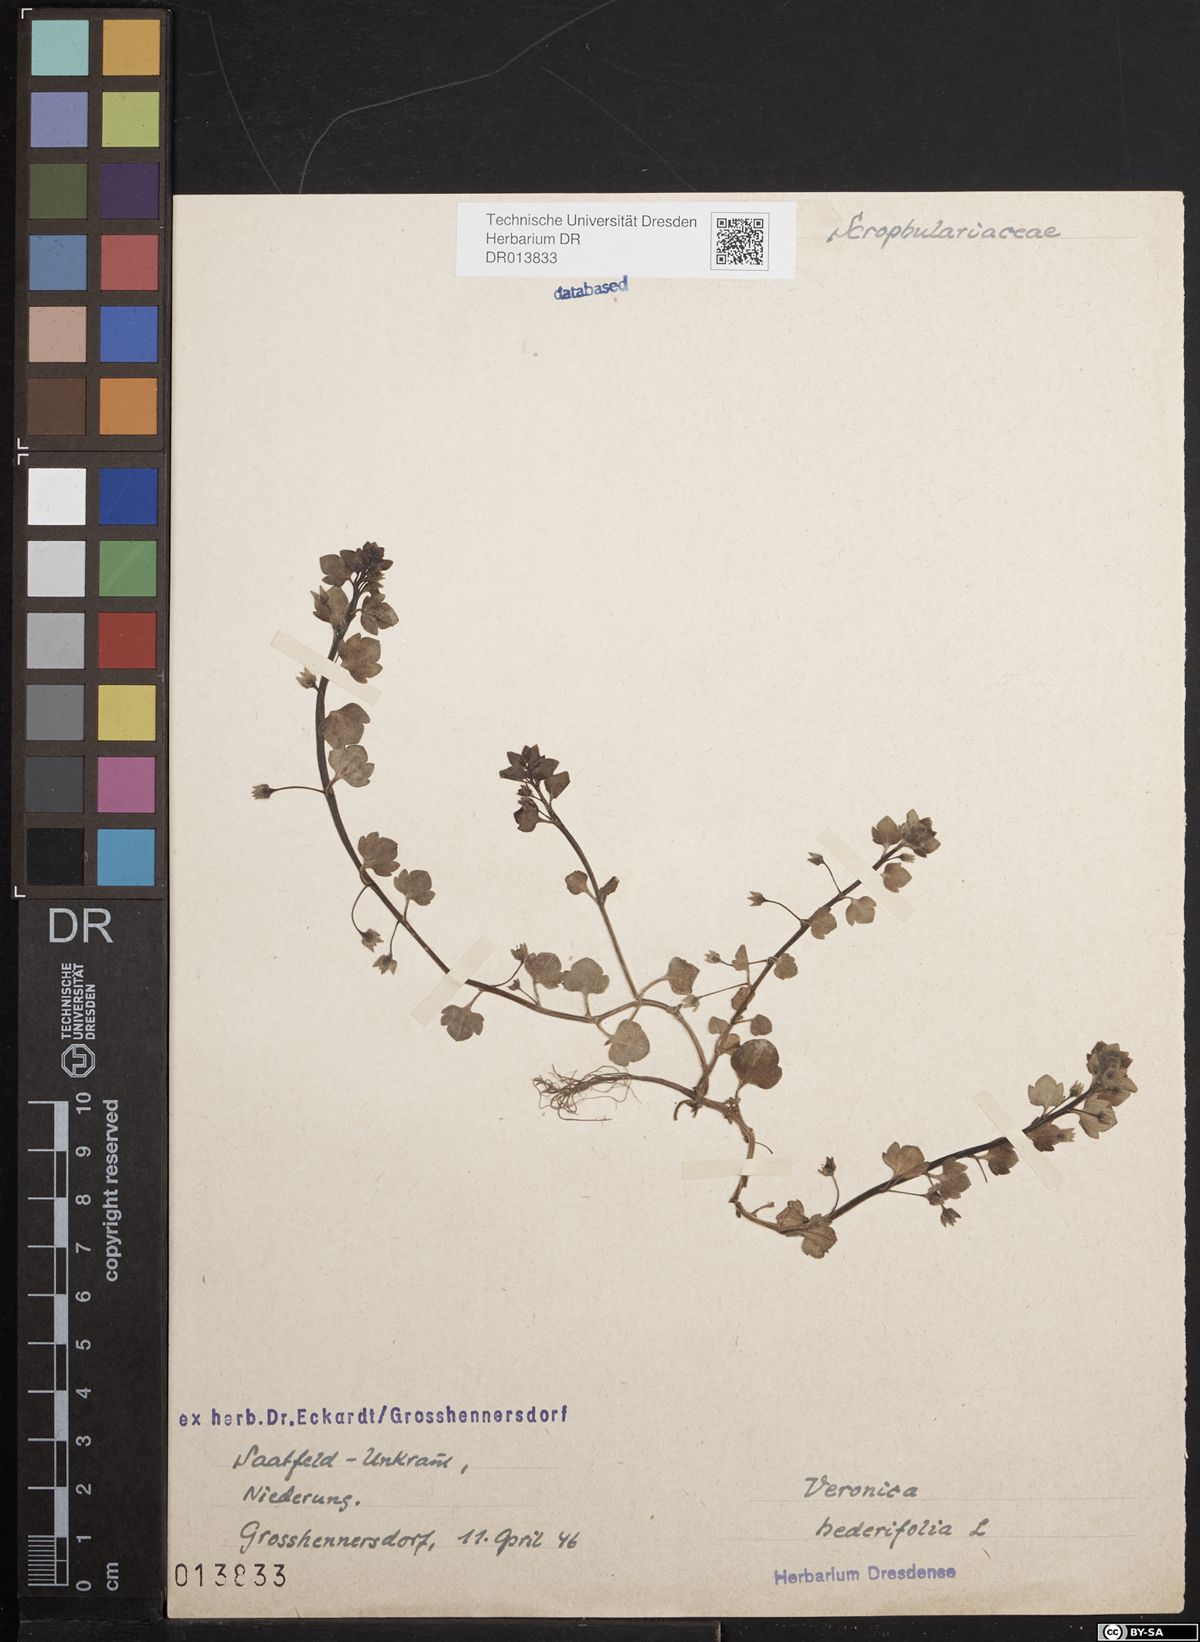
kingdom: Plantae
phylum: Tracheophyta
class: Magnoliopsida
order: Lamiales
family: Plantaginaceae
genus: Veronica
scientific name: Veronica hederifolia
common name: Ivy-leaved speedwell
